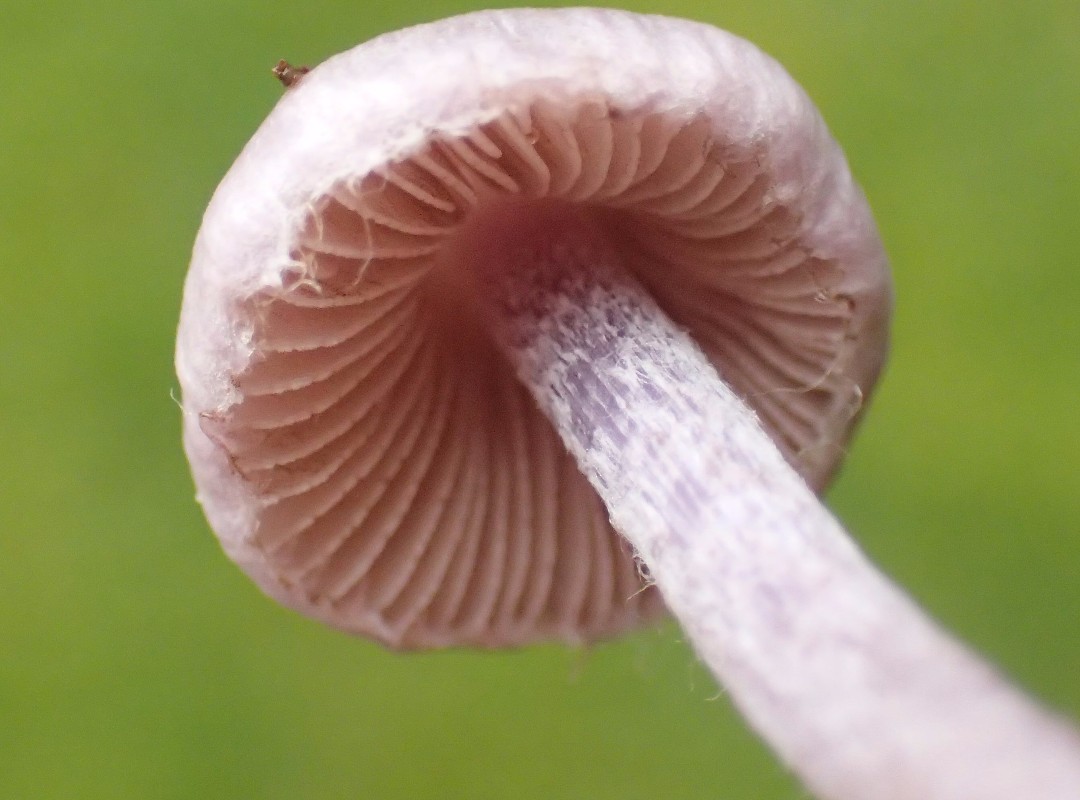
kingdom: Fungi
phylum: Basidiomycota
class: Agaricomycetes
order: Agaricales
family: Inocybaceae
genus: Inocybe
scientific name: Inocybe geophylla
